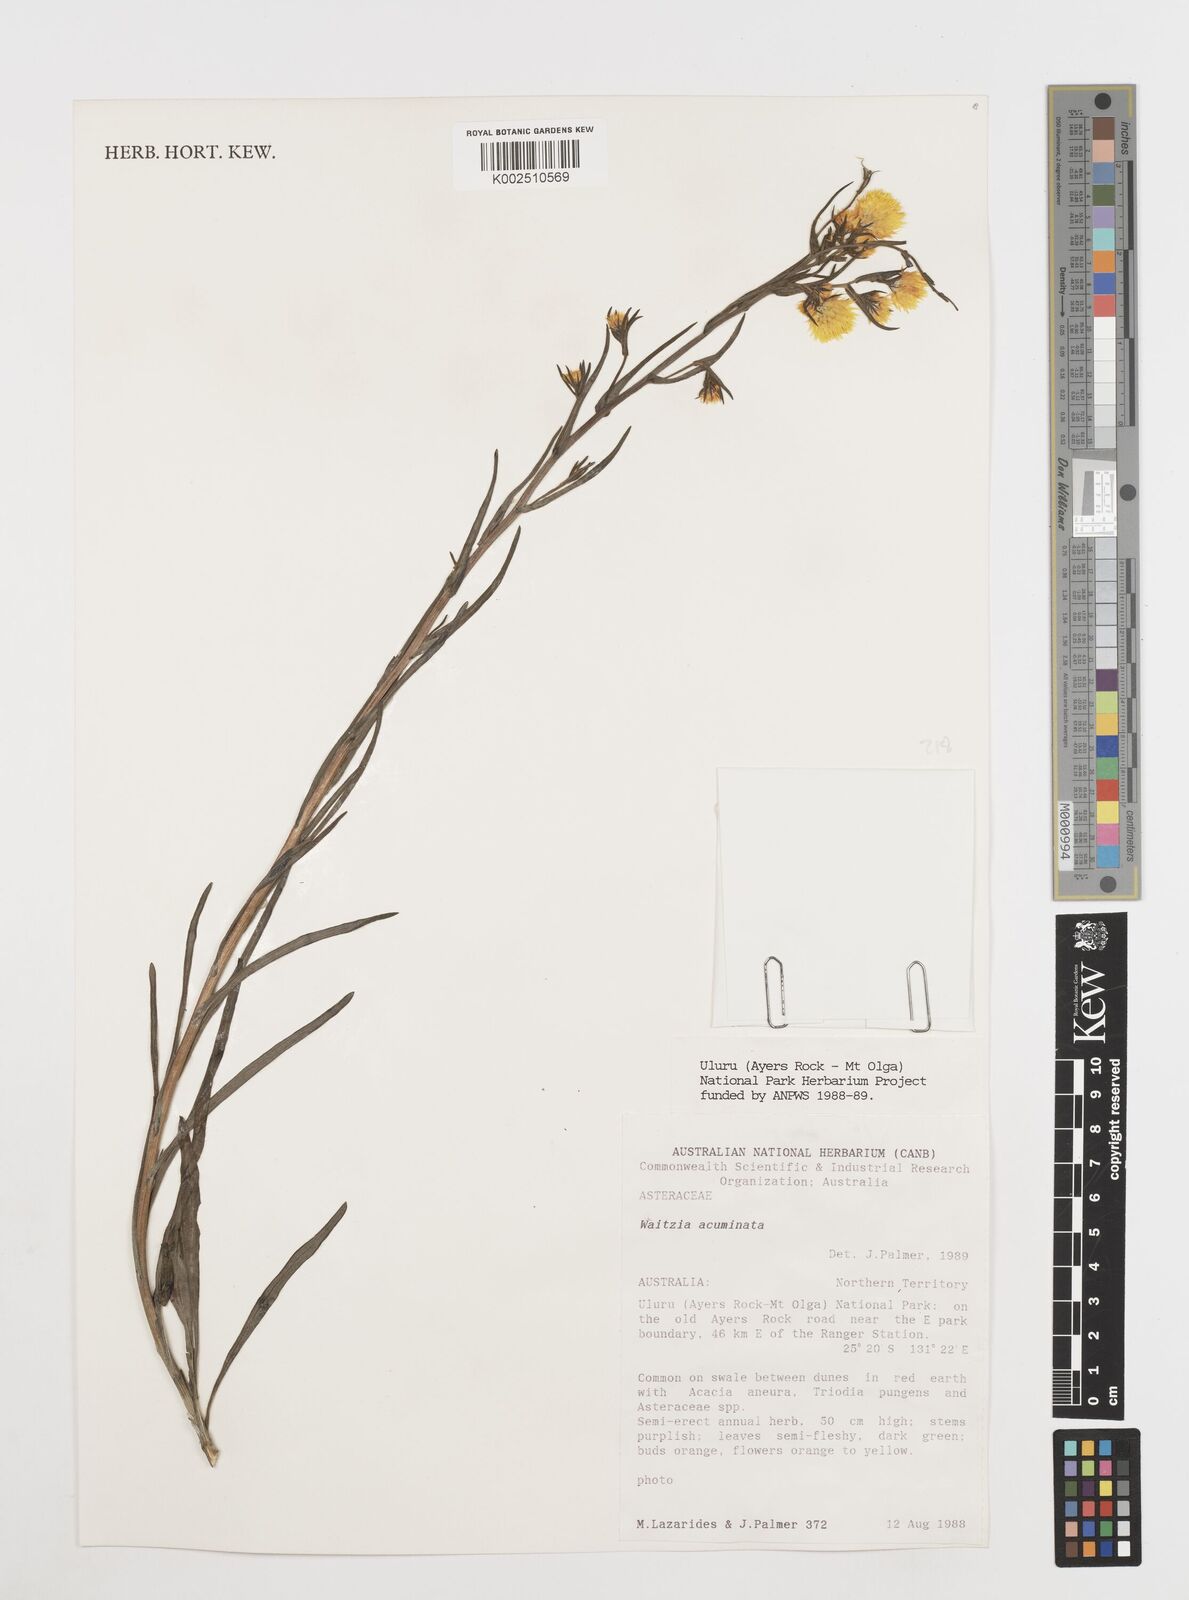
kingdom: Plantae
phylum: Tracheophyta
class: Magnoliopsida
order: Asterales
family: Asteraceae
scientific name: Asteraceae
